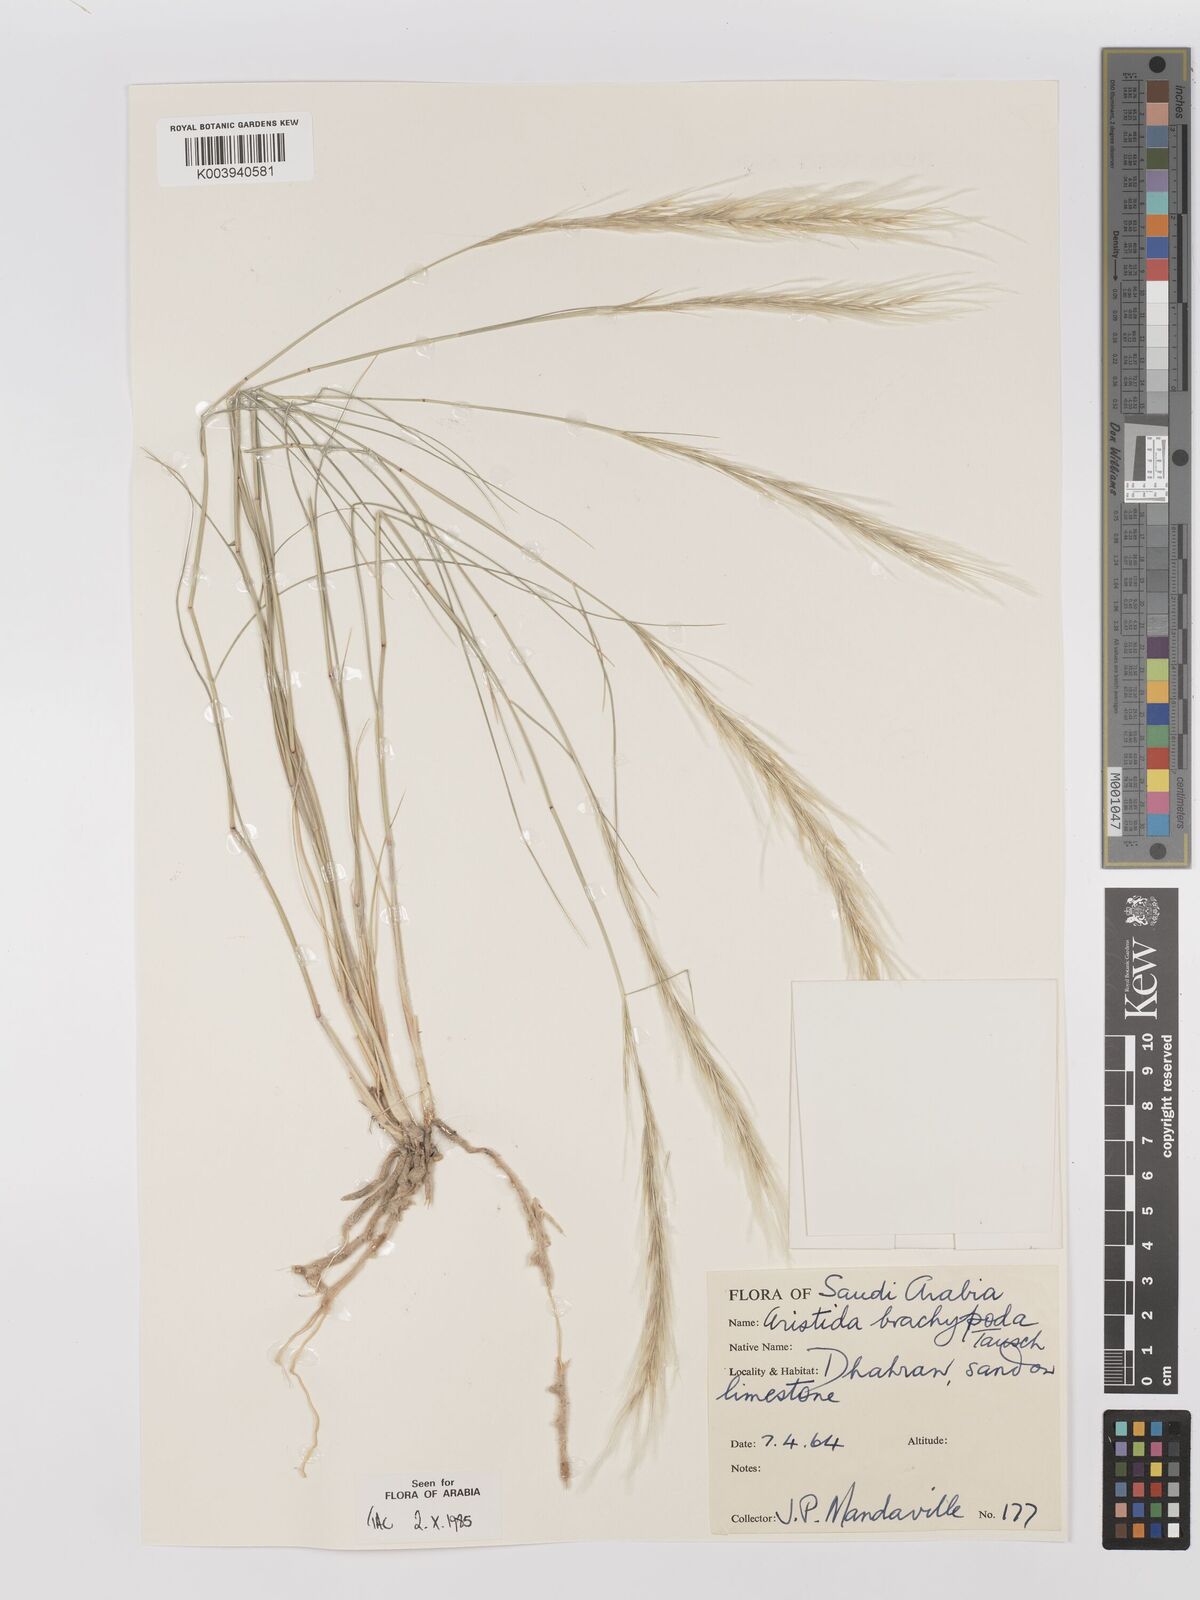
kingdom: Plantae
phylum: Tracheophyta
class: Liliopsida
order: Poales
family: Poaceae
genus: Stipagrostis
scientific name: Stipagrostis plumosa
